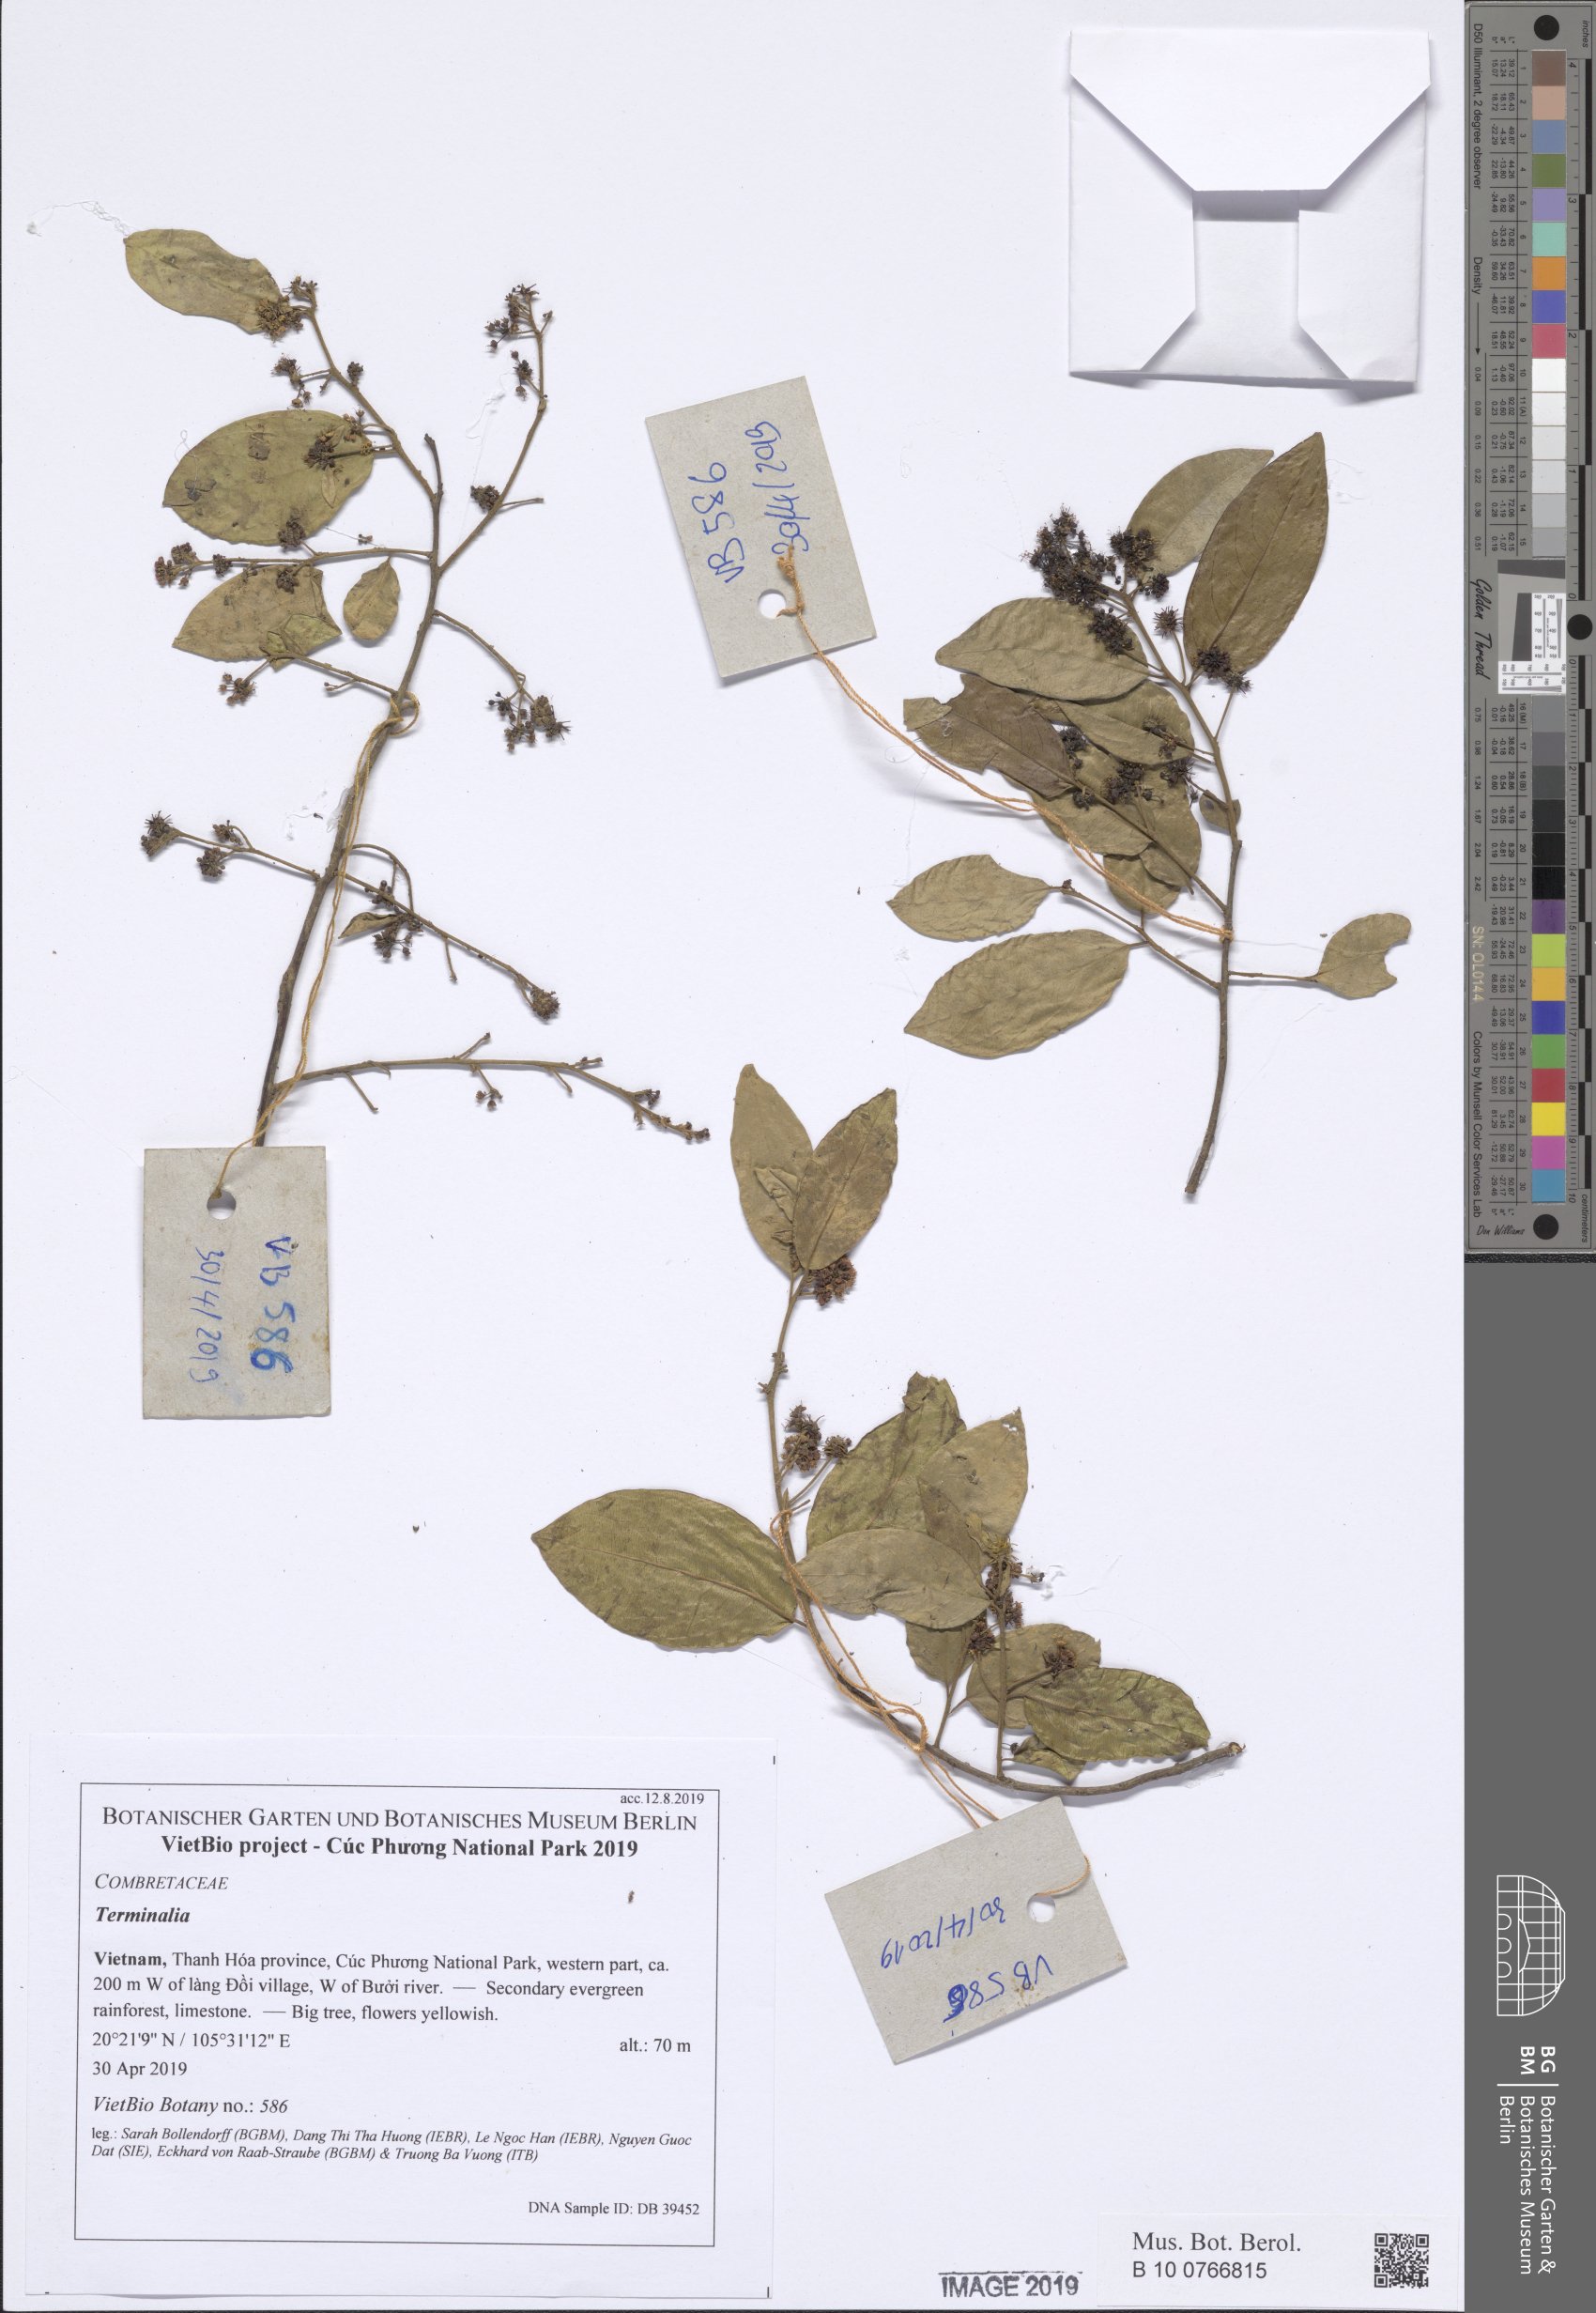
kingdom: Plantae
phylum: Tracheophyta
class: Magnoliopsida
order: Myrtales
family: Combretaceae
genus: Terminalia
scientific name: Terminalia phillyreifolia
